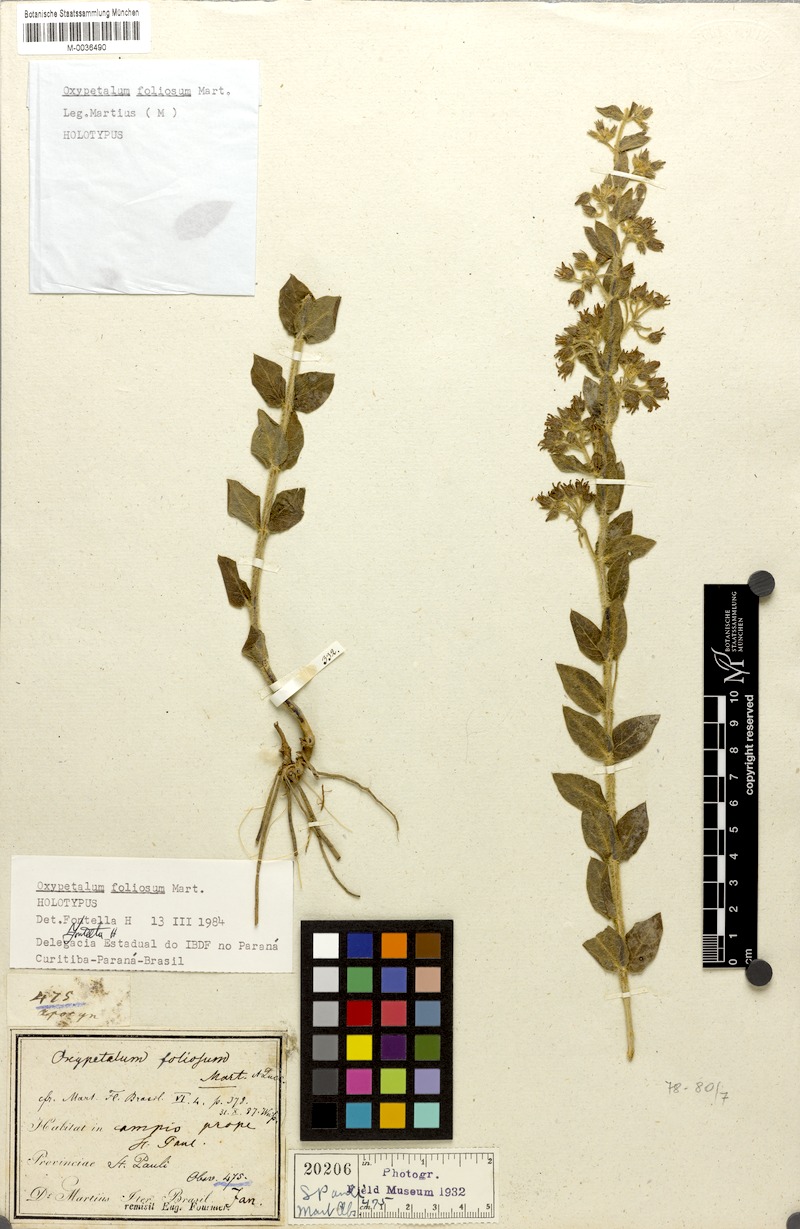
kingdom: Plantae
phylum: Tracheophyta
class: Magnoliopsida
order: Gentianales
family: Apocynaceae
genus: Oxypetalum
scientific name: Oxypetalum foliosum
